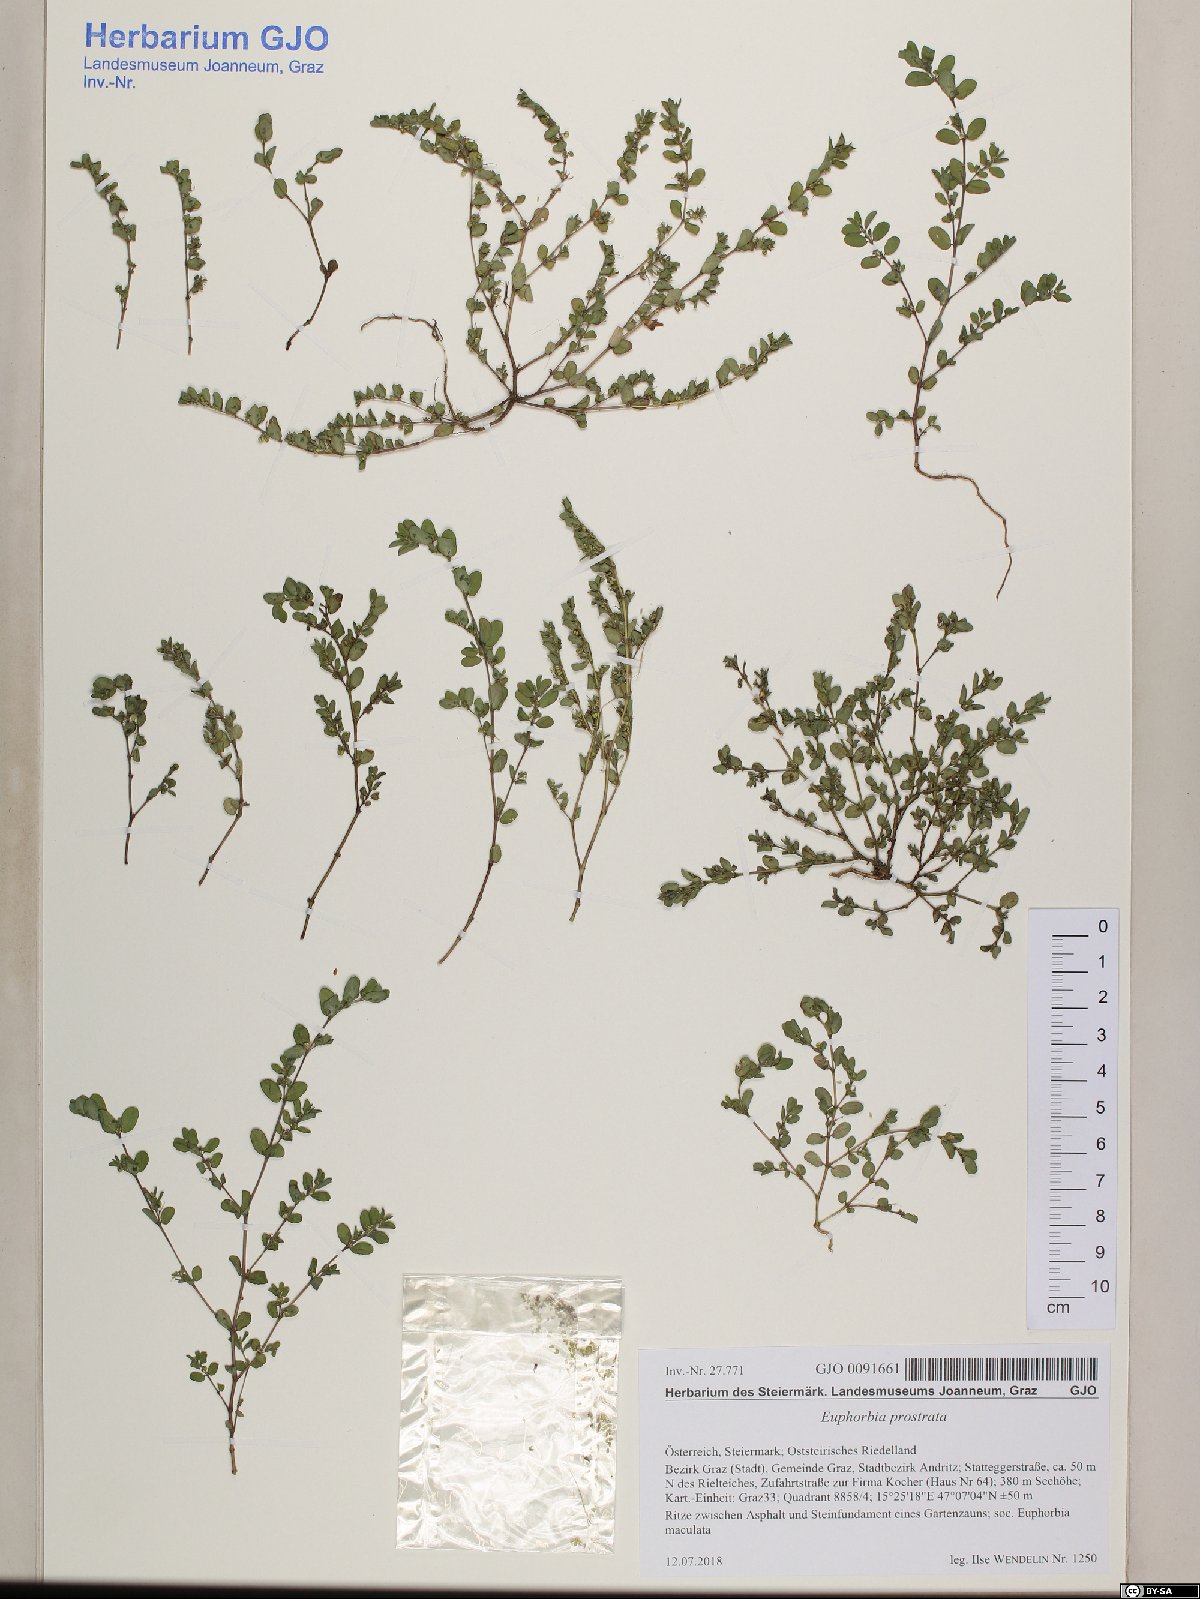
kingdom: Plantae
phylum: Tracheophyta
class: Magnoliopsida
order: Malpighiales
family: Euphorbiaceae
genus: Euphorbia
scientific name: Euphorbia prostrata
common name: Prostrate sandmat
